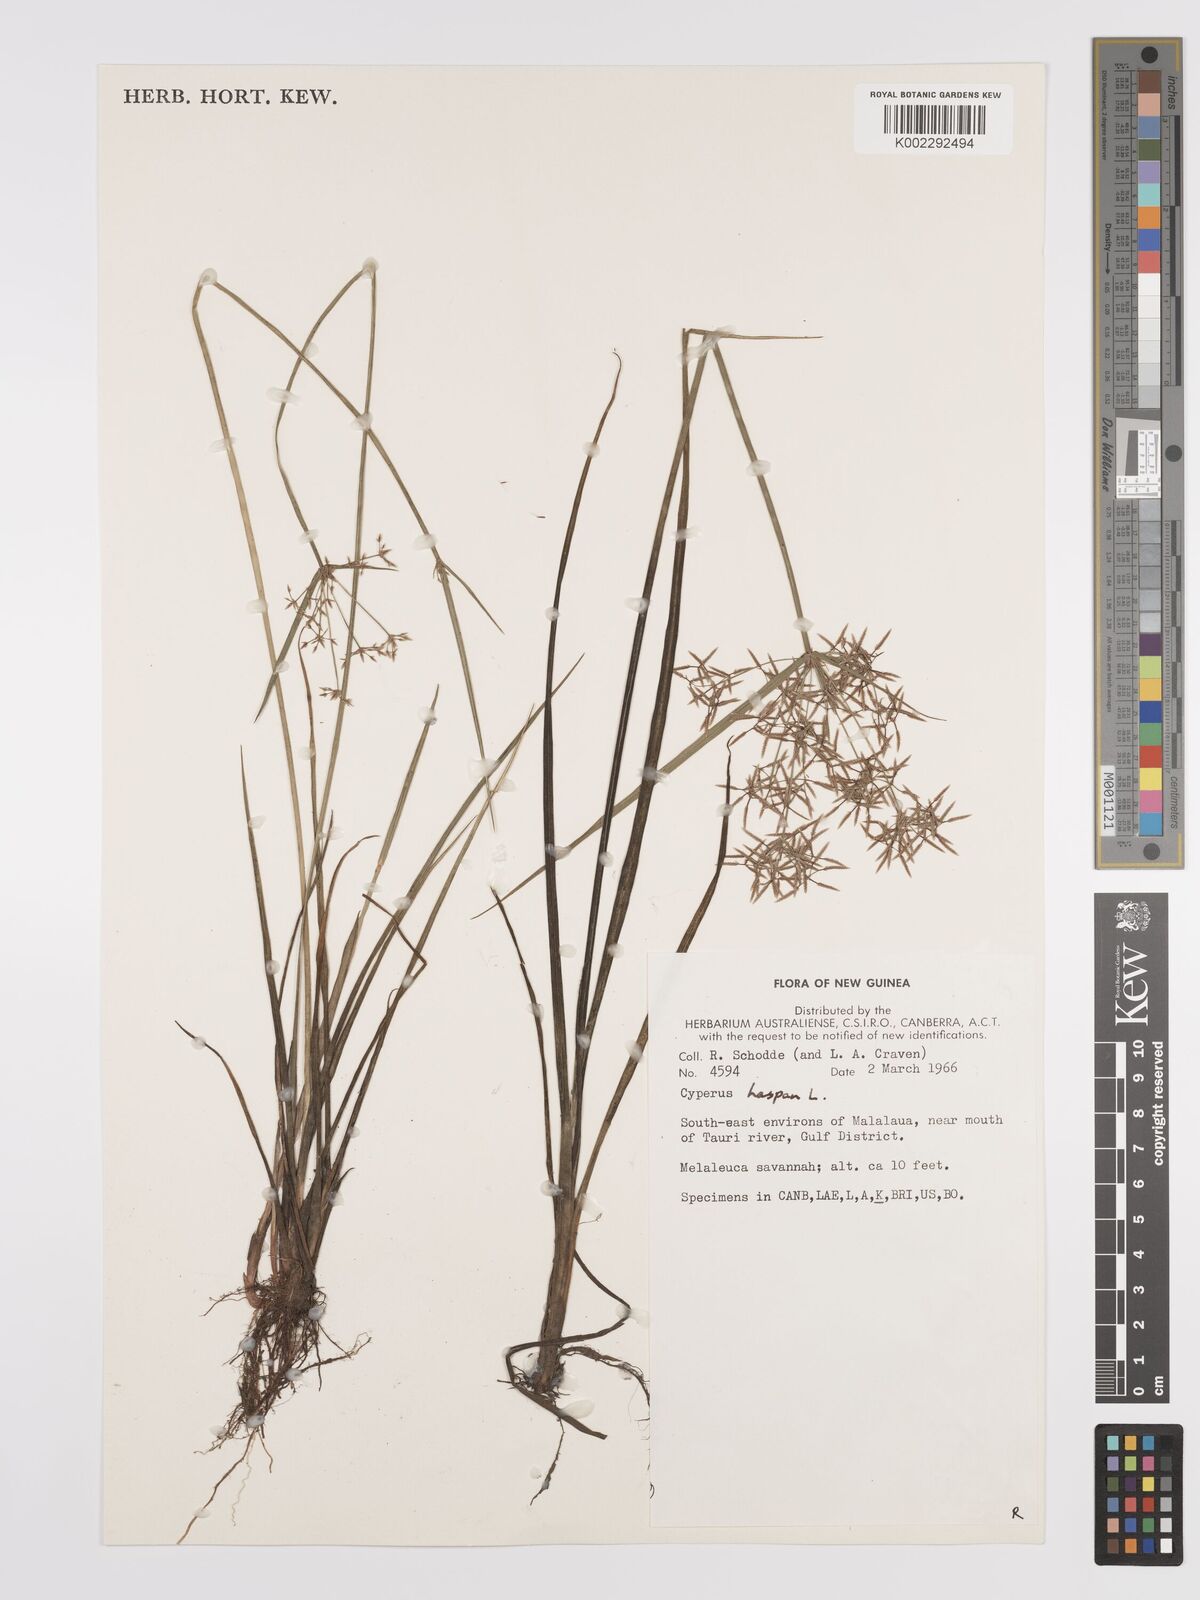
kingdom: Plantae
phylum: Tracheophyta
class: Liliopsida
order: Poales
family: Cyperaceae
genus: Cyperus
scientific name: Cyperus haspan
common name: Haspan flatsedge
